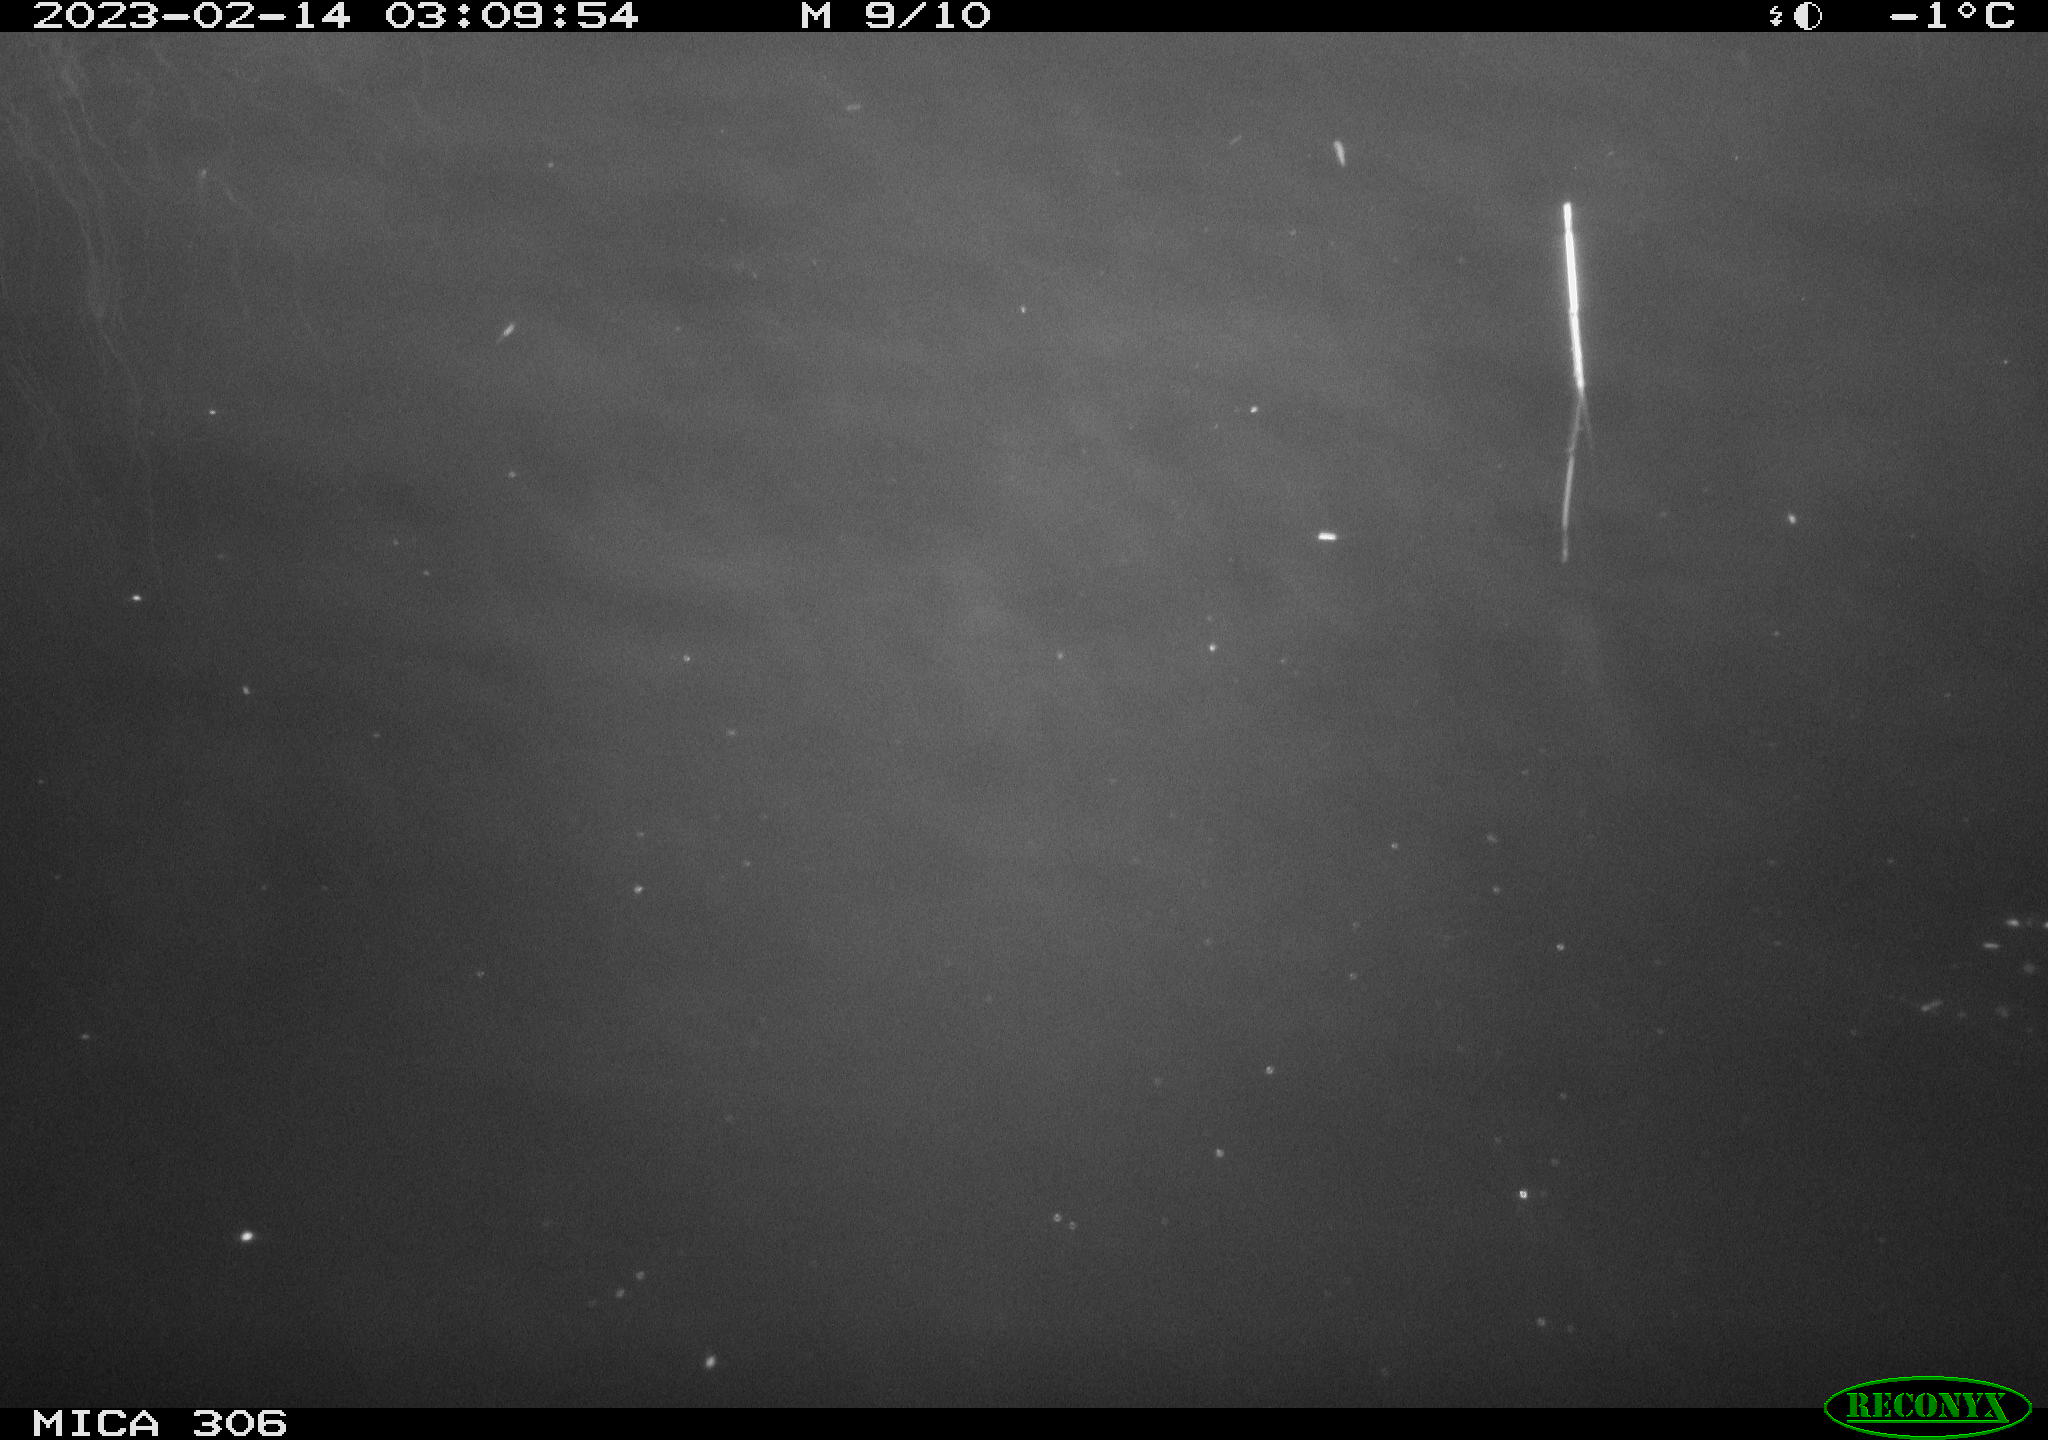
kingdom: Animalia
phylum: Chordata
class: Mammalia
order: Rodentia
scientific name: Rodentia
